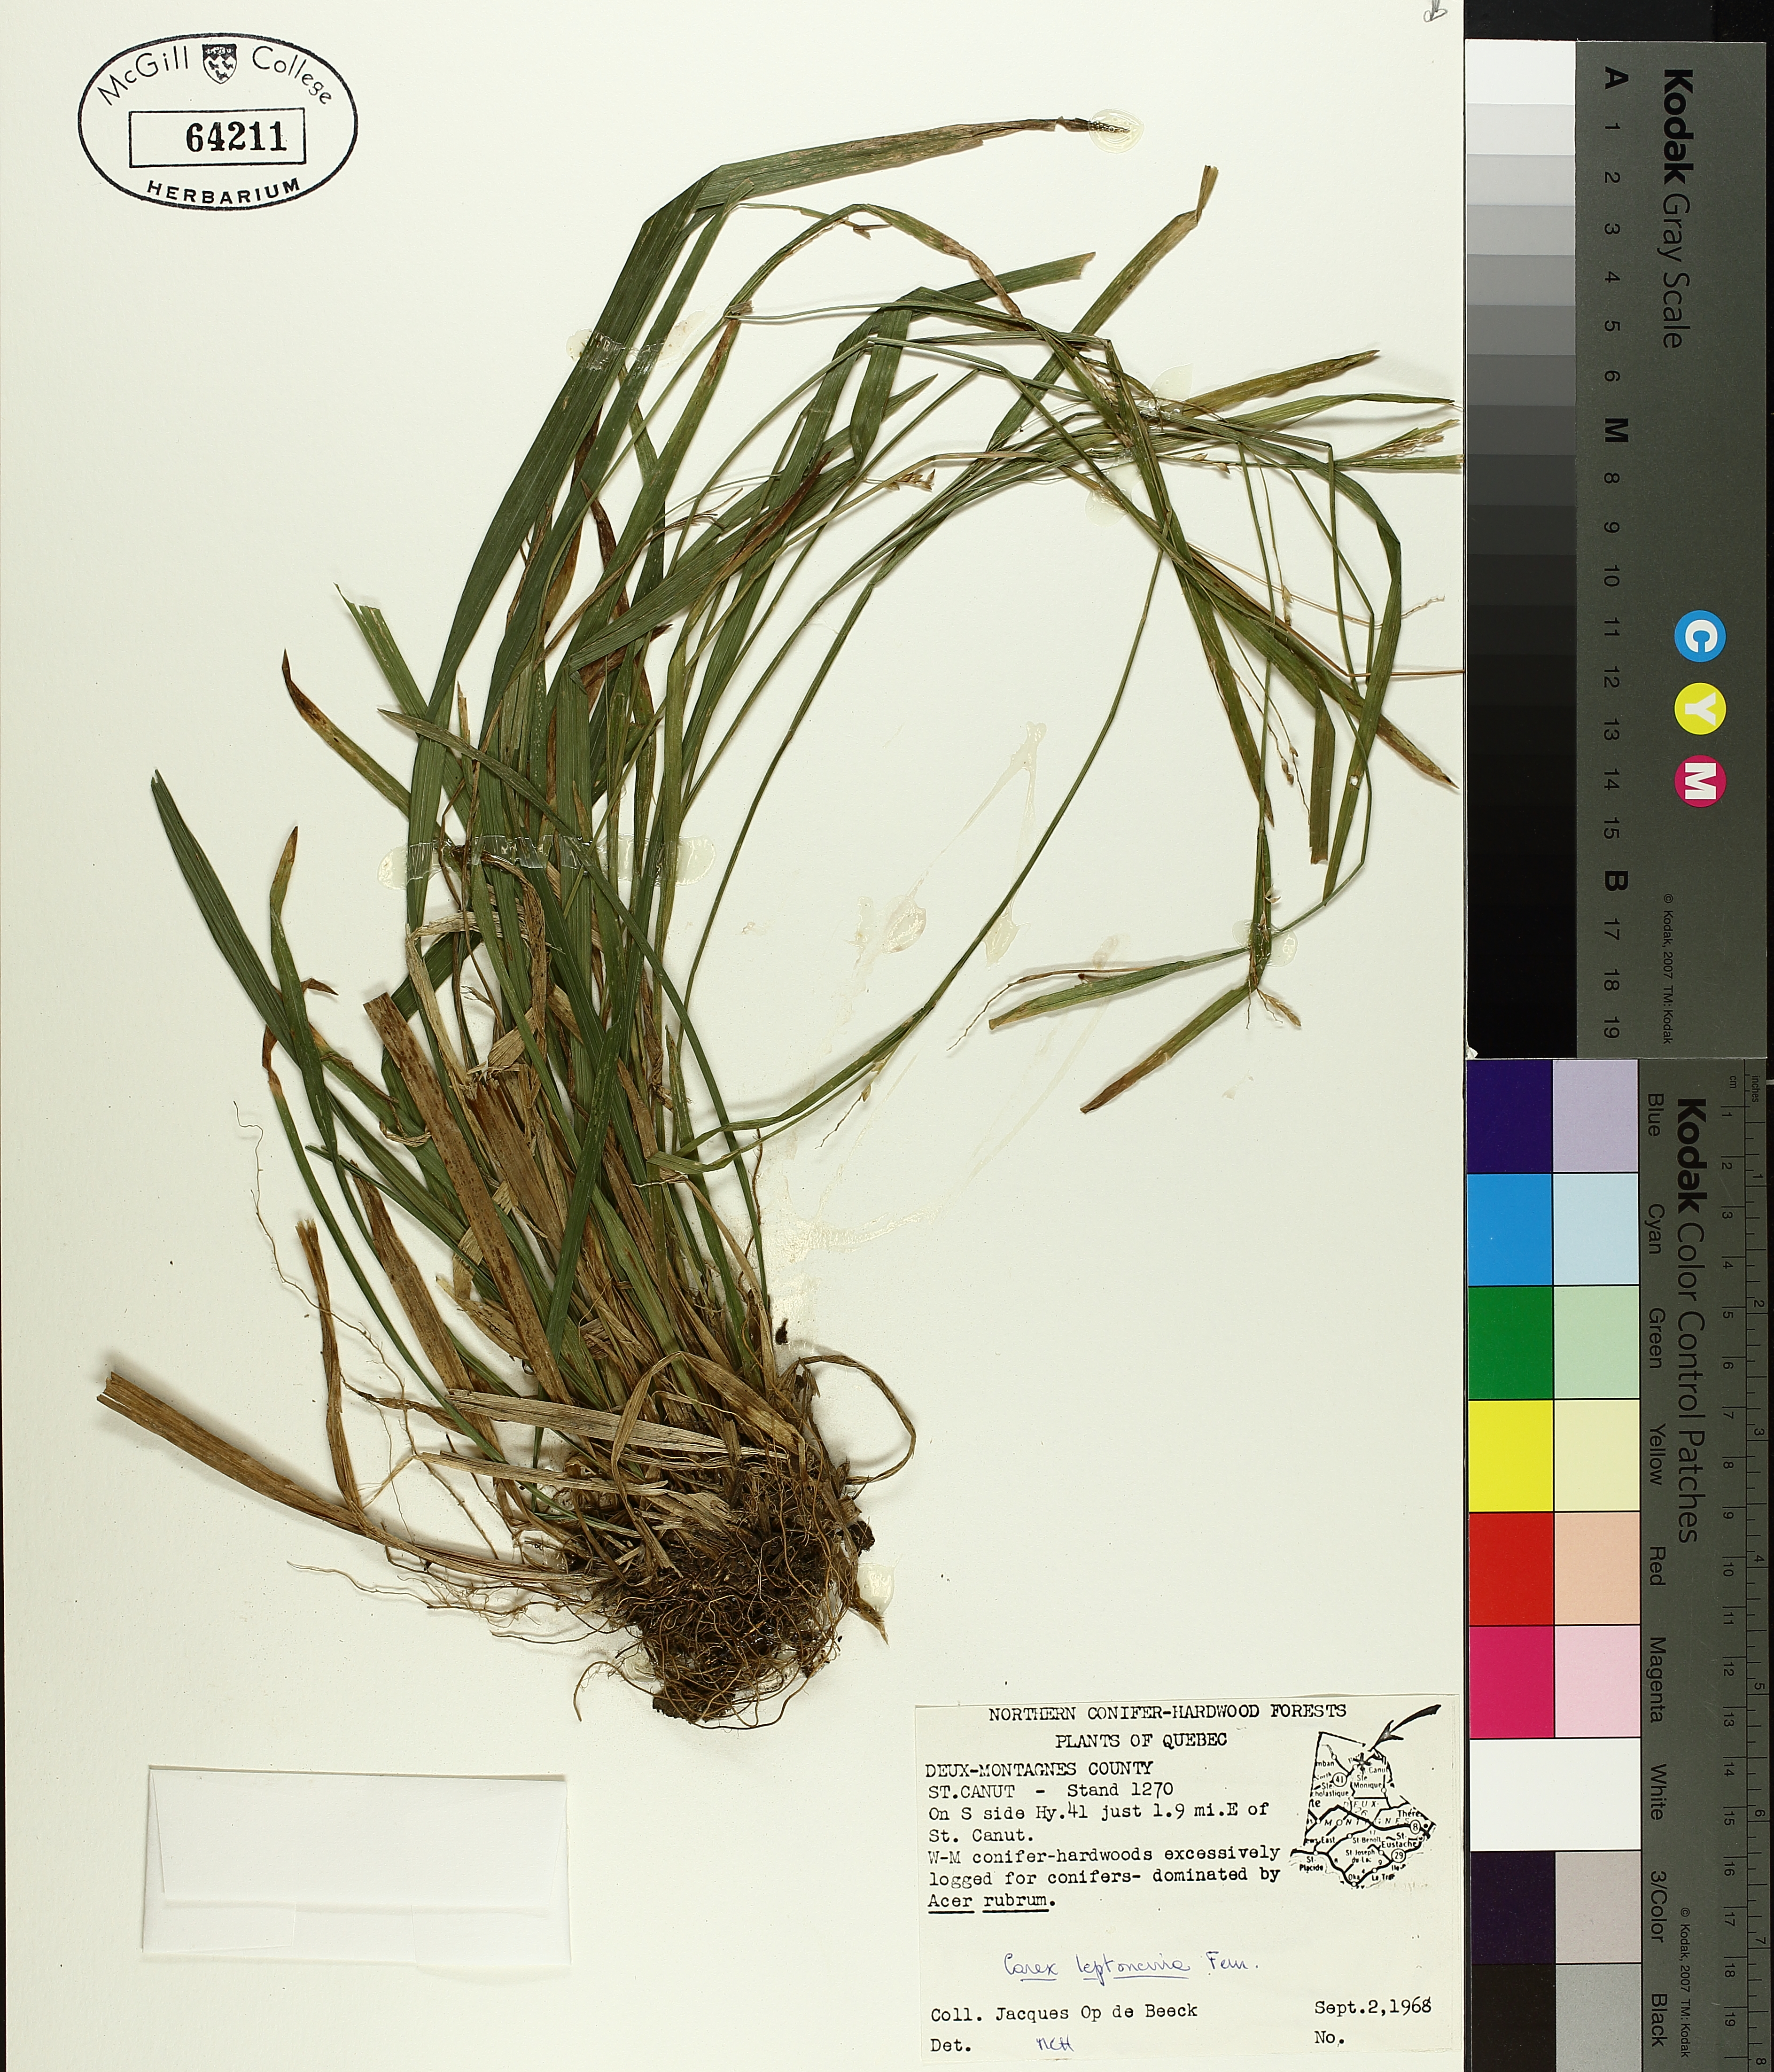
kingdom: Plantae
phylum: Tracheophyta
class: Liliopsida
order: Poales
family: Cyperaceae
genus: Carex
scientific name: Carex leptonervia
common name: Few-nerved wood sedge
